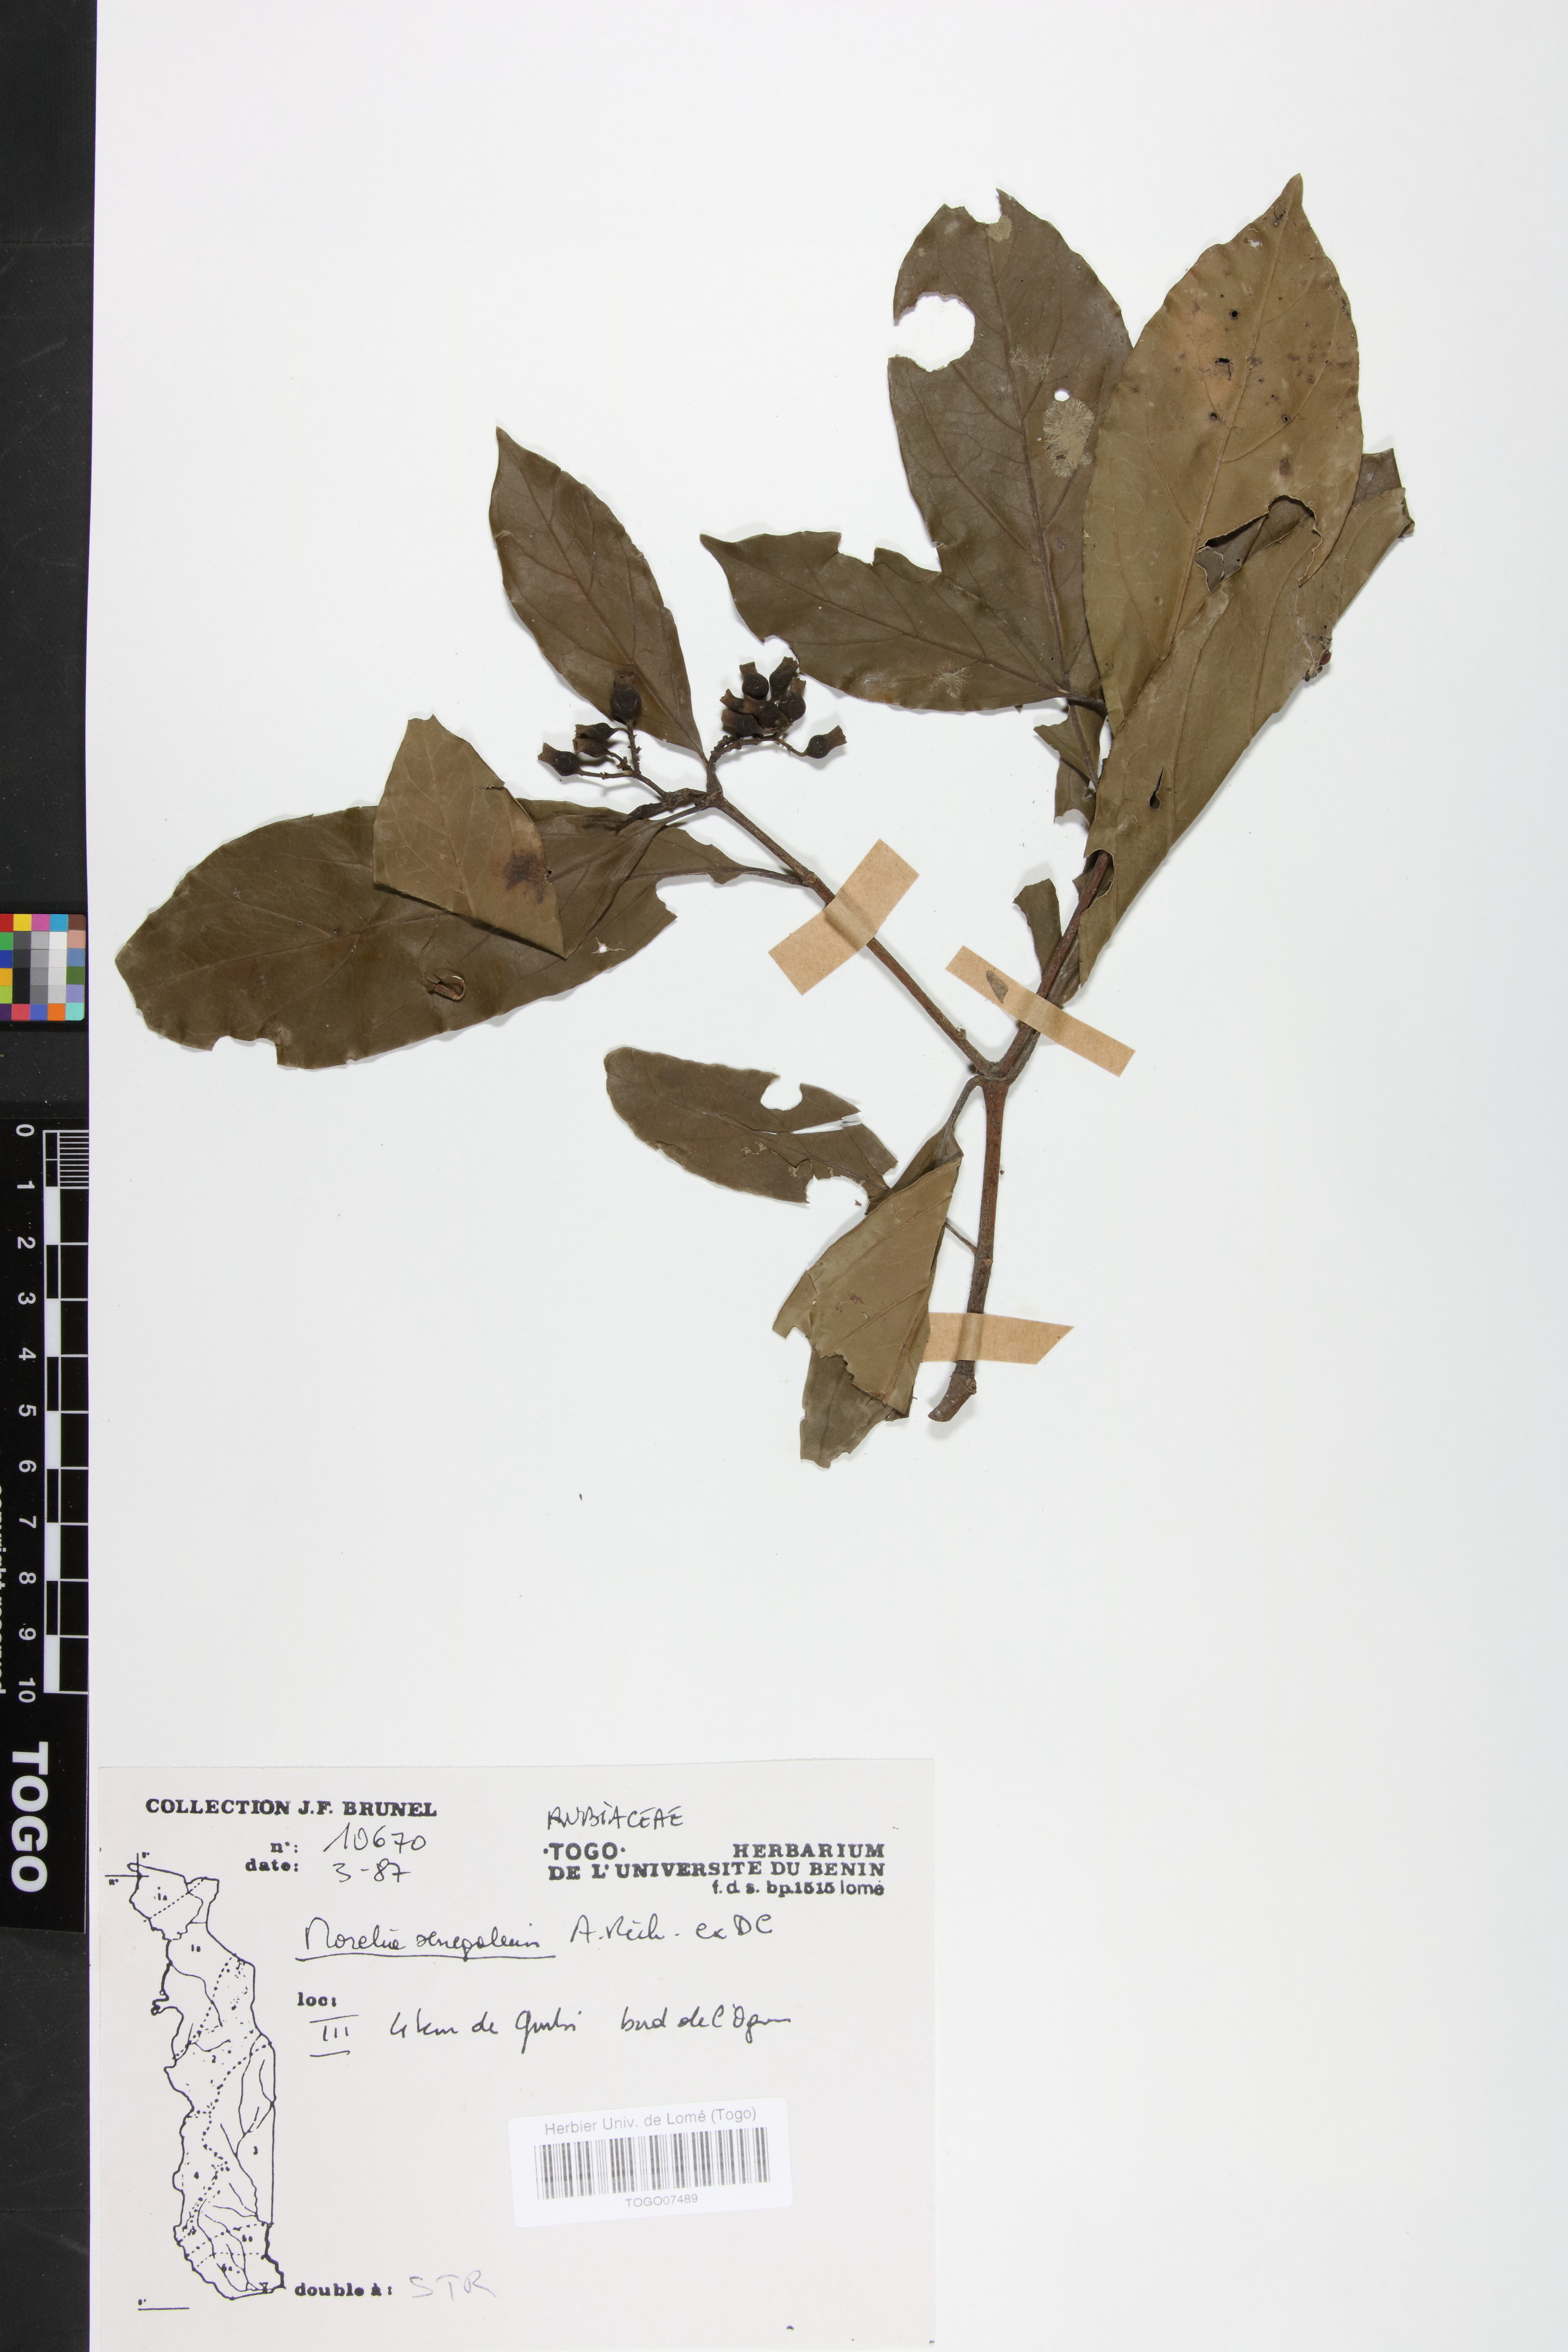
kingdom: Plantae
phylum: Tracheophyta
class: Magnoliopsida
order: Gentianales
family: Rubiaceae
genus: Morelia
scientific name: Morelia senegalensis
